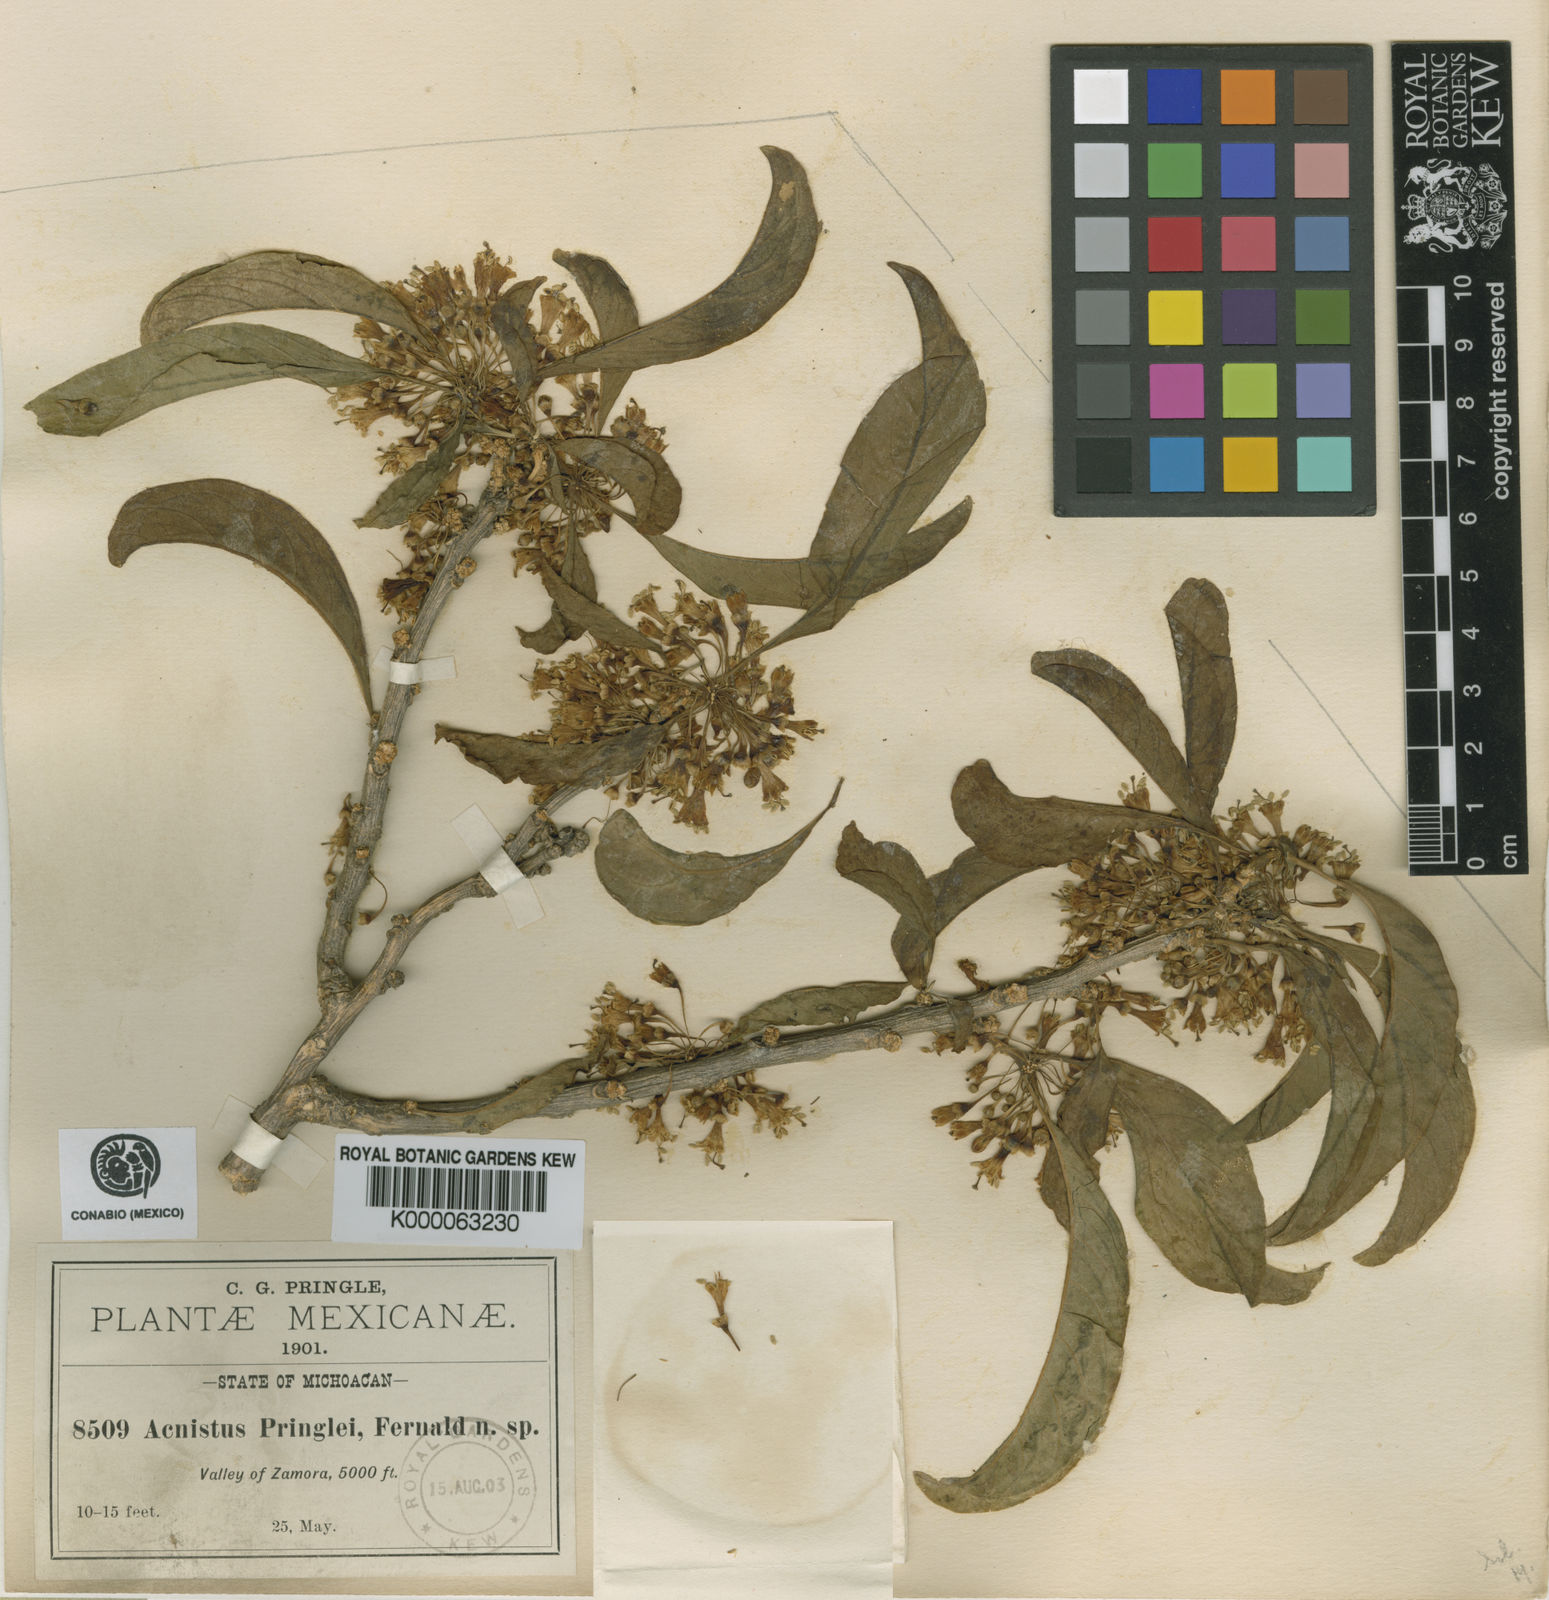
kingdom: Plantae
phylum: Tracheophyta
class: Magnoliopsida
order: Solanales
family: Solanaceae
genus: Iochroma
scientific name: Iochroma arborescens
